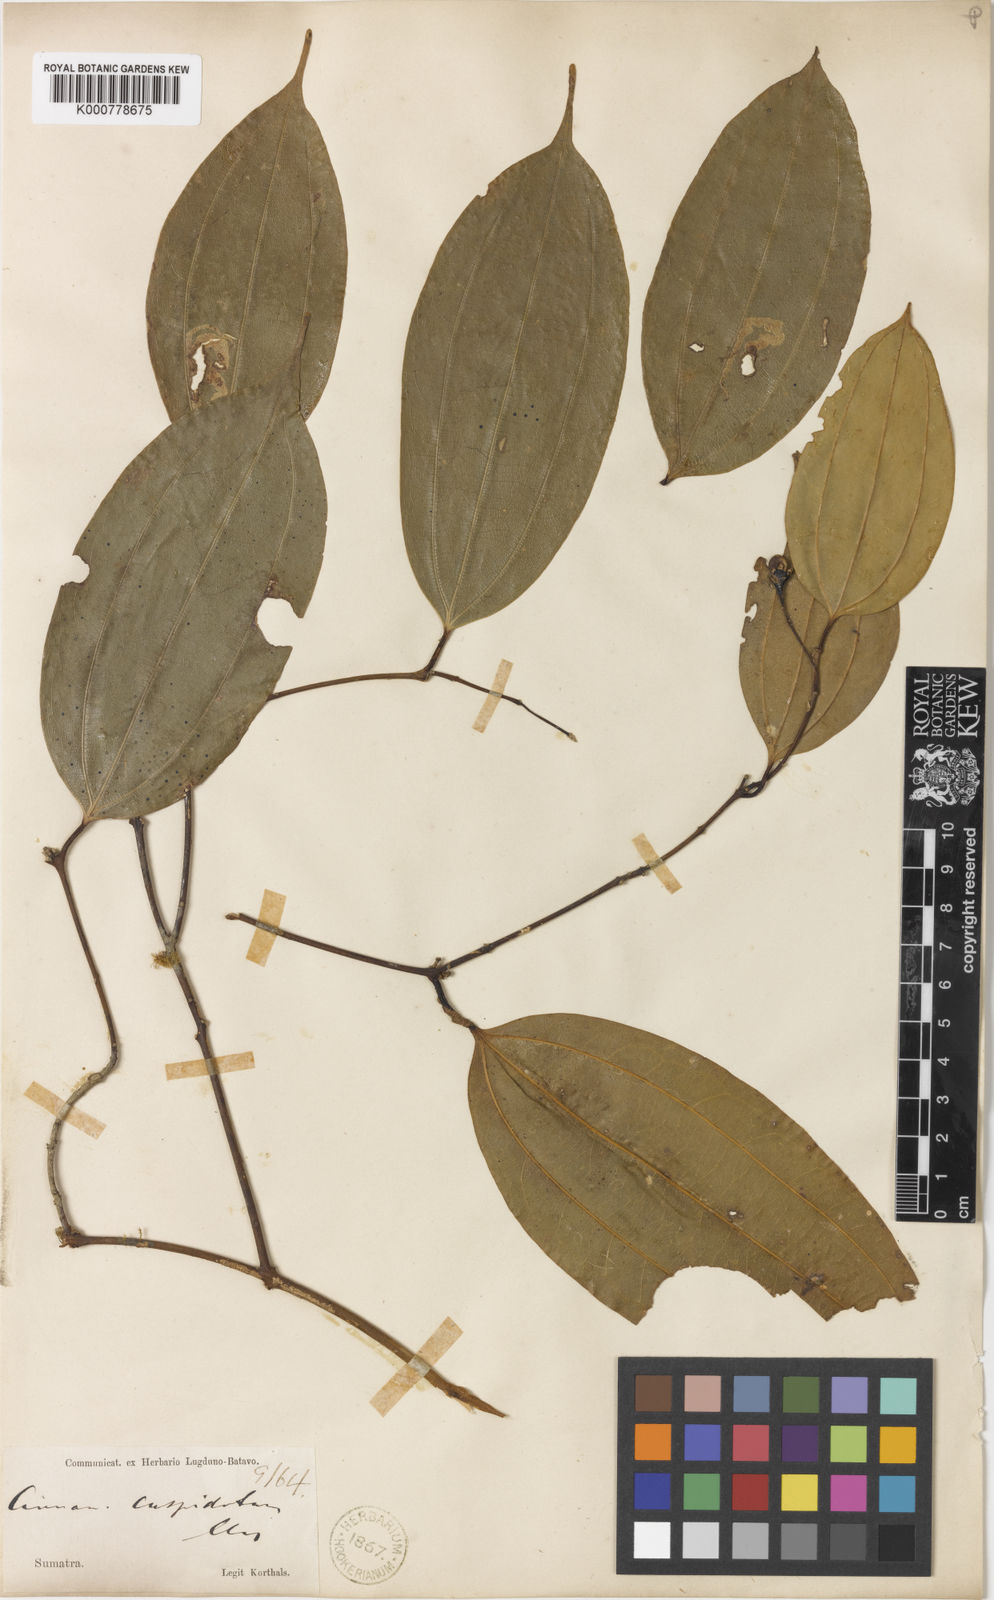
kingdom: Plantae
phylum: Tracheophyta
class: Magnoliopsida
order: Laurales
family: Lauraceae
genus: Cinnamomum
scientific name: Cinnamomum cuspidatum
